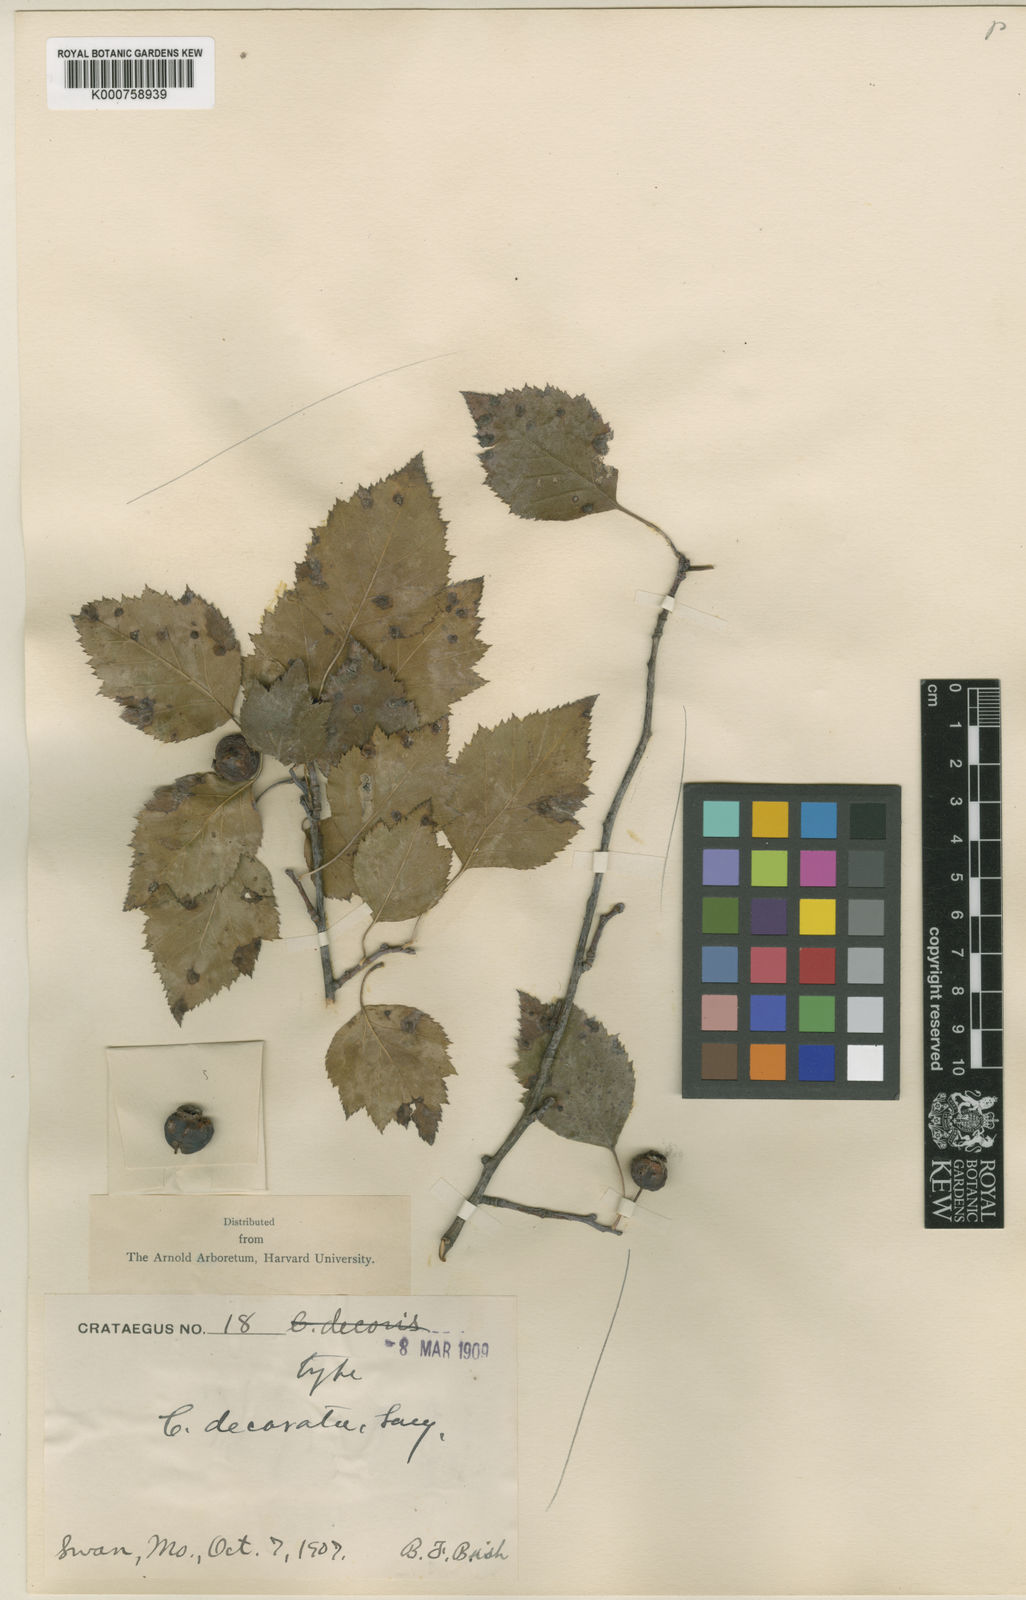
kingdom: Plantae
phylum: Tracheophyta
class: Magnoliopsida
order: Rosales
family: Rosaceae
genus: Crataegus
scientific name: Crataegus decorata
